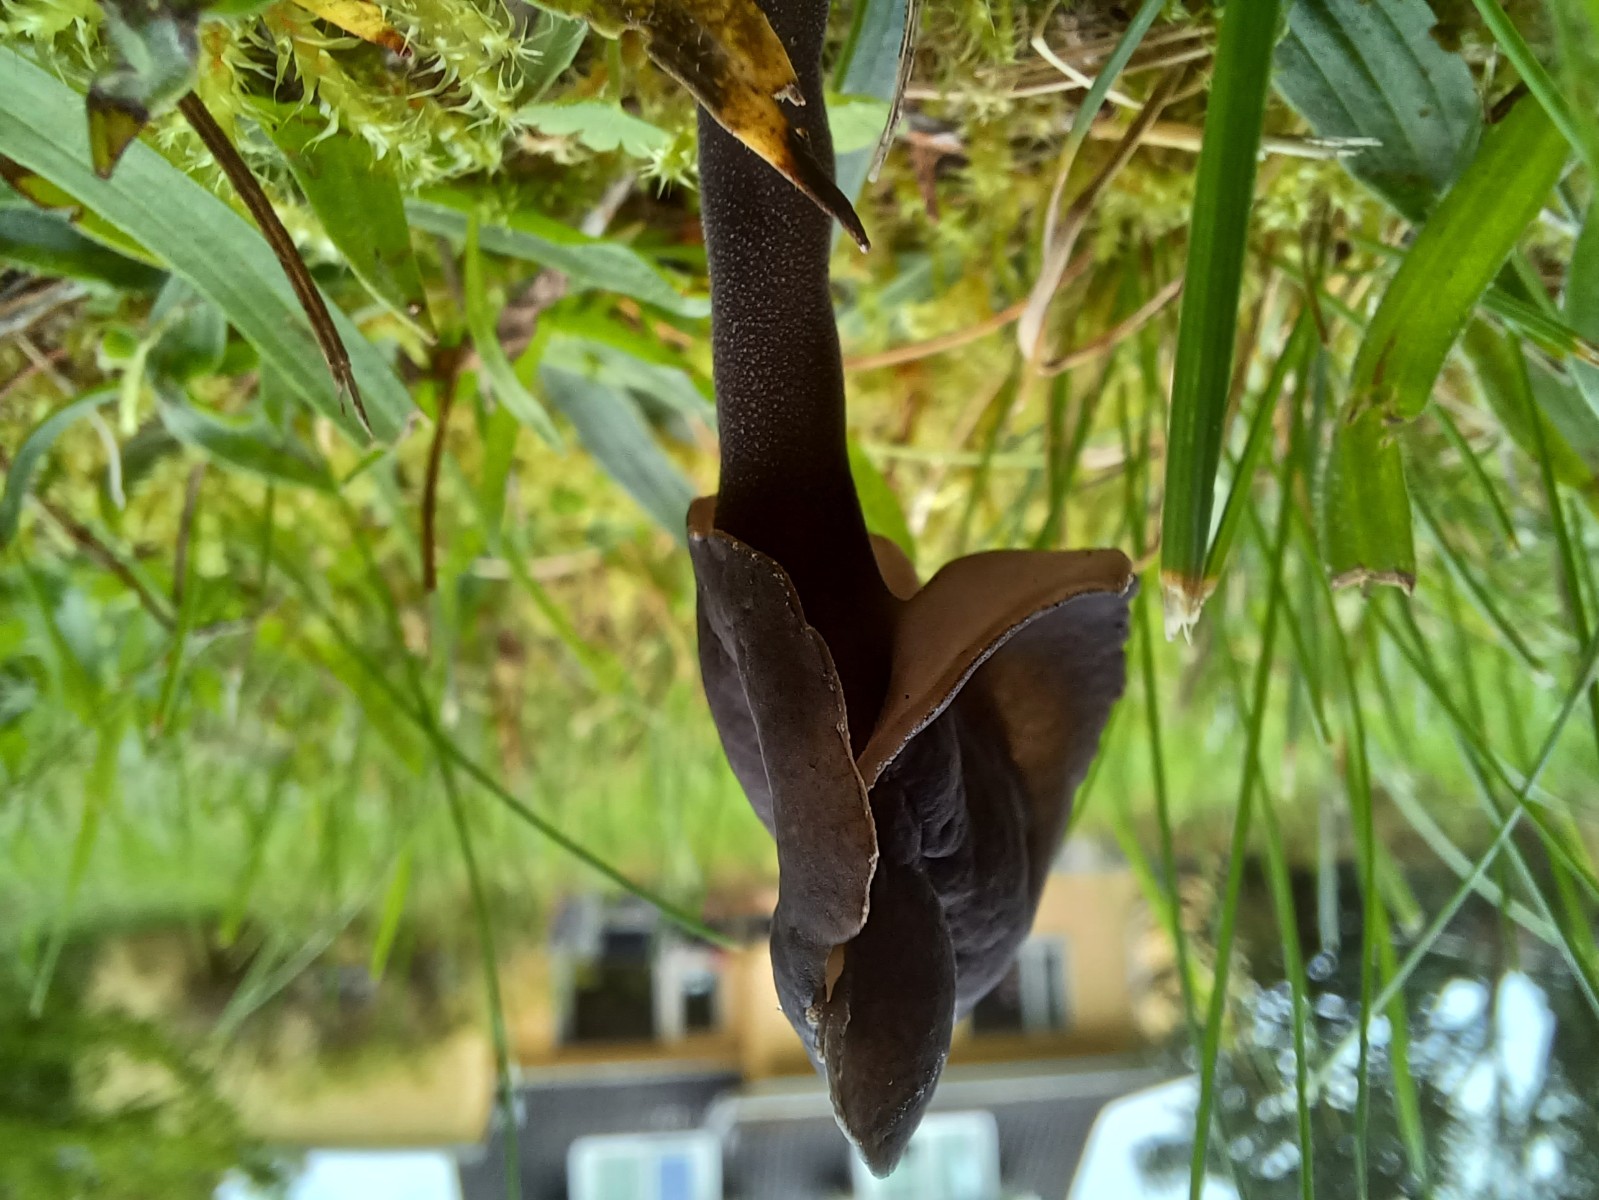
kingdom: Fungi
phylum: Ascomycota
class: Pezizomycetes
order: Pezizales
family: Helvellaceae
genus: Helvella
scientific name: Helvella atra
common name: sort foldhat
